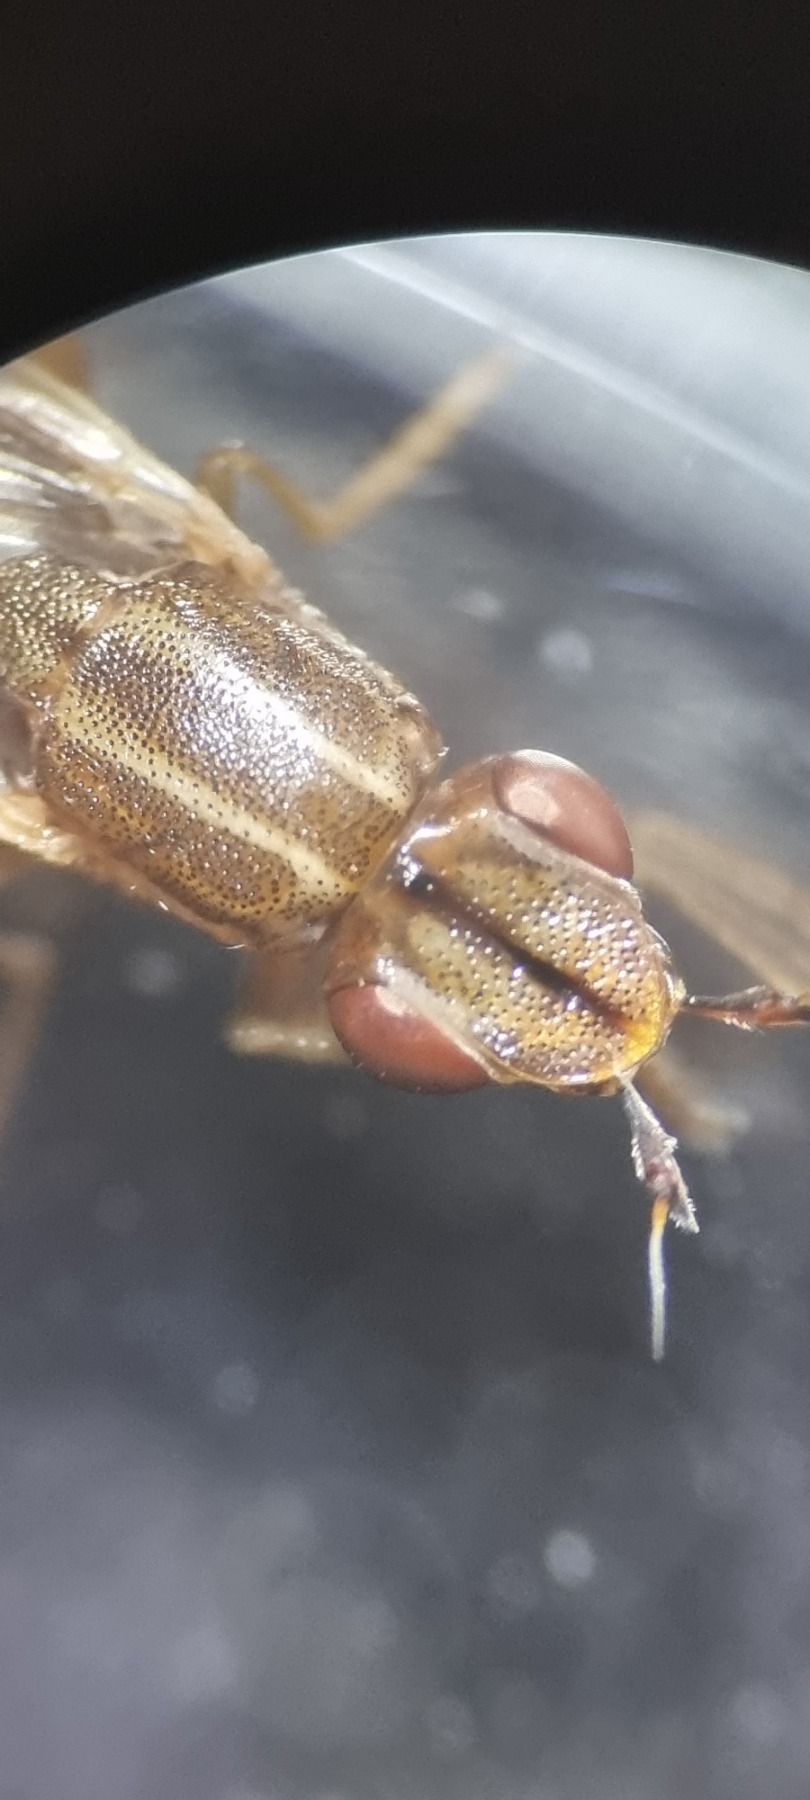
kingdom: Animalia
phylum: Arthropoda
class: Insecta
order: Diptera
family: Chloropidae
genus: Platycephala
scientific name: Platycephala planifrons
